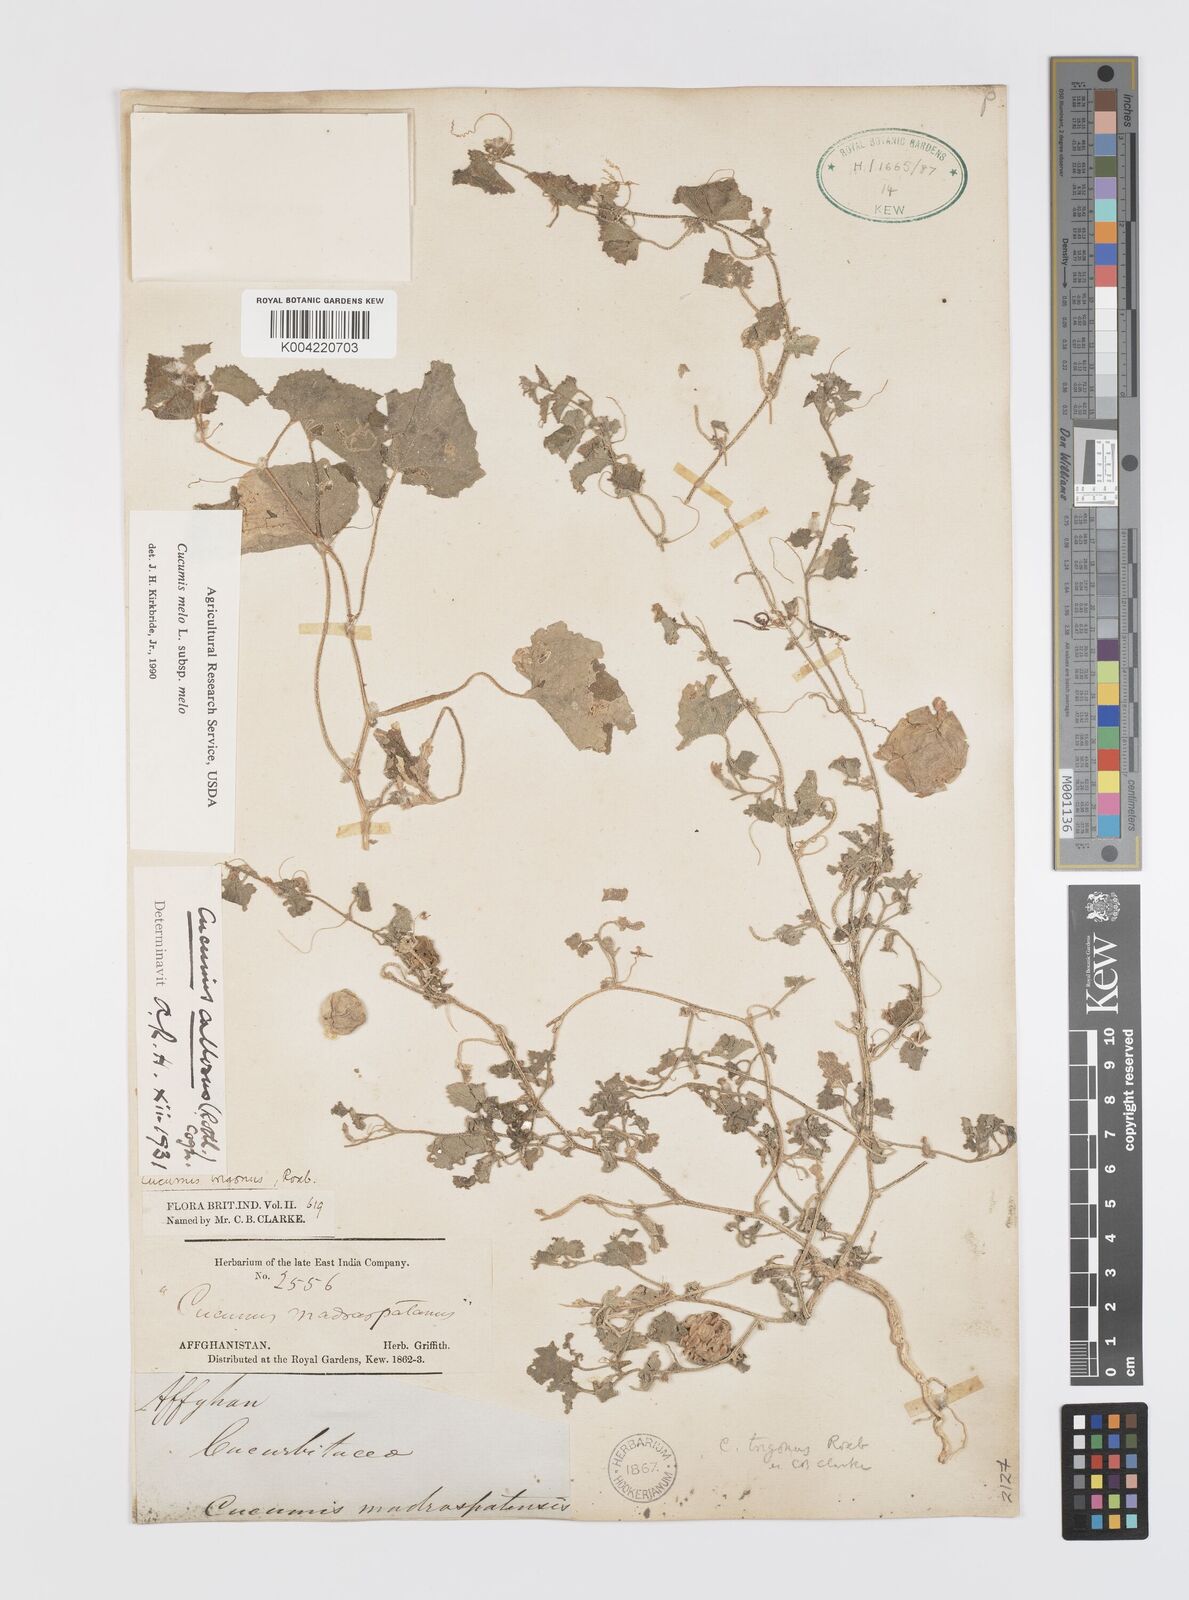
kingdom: Plantae
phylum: Tracheophyta
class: Magnoliopsida
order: Cucurbitales
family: Cucurbitaceae
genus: Cucumis
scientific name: Cucumis melo
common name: Melon
